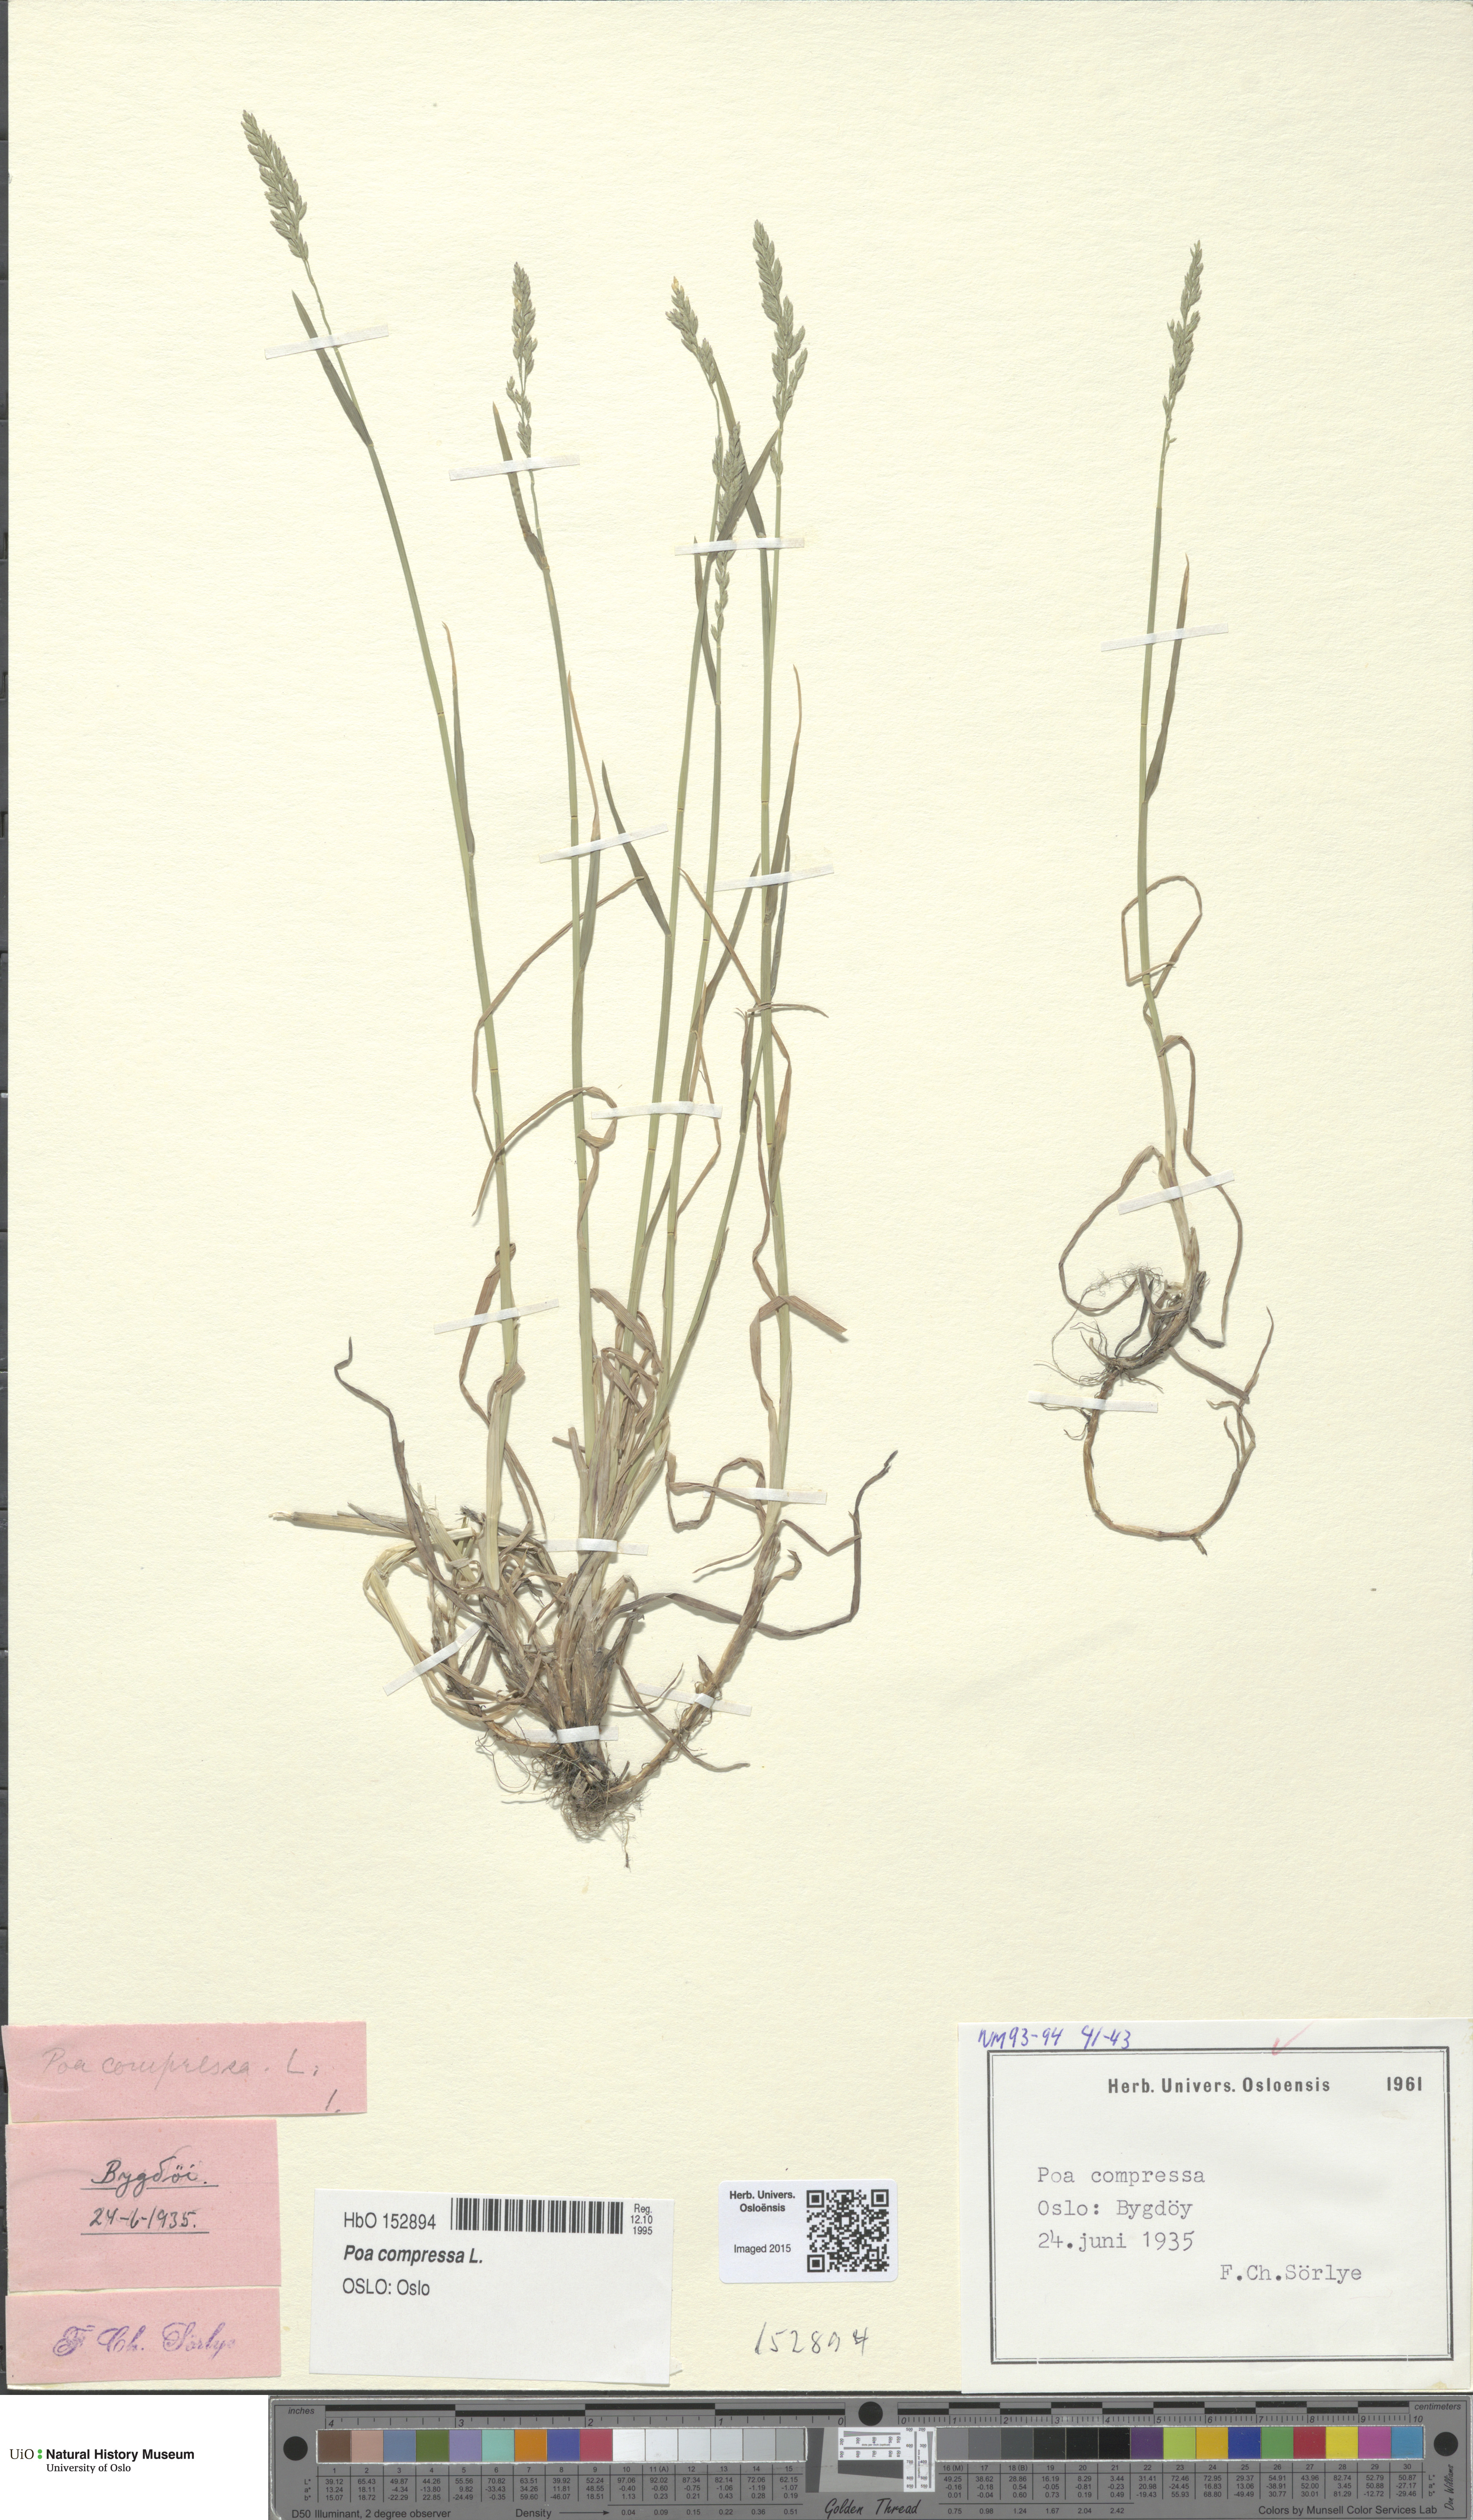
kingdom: Plantae
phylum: Tracheophyta
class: Liliopsida
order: Poales
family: Poaceae
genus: Poa
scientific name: Poa compressa
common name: Canada bluegrass
